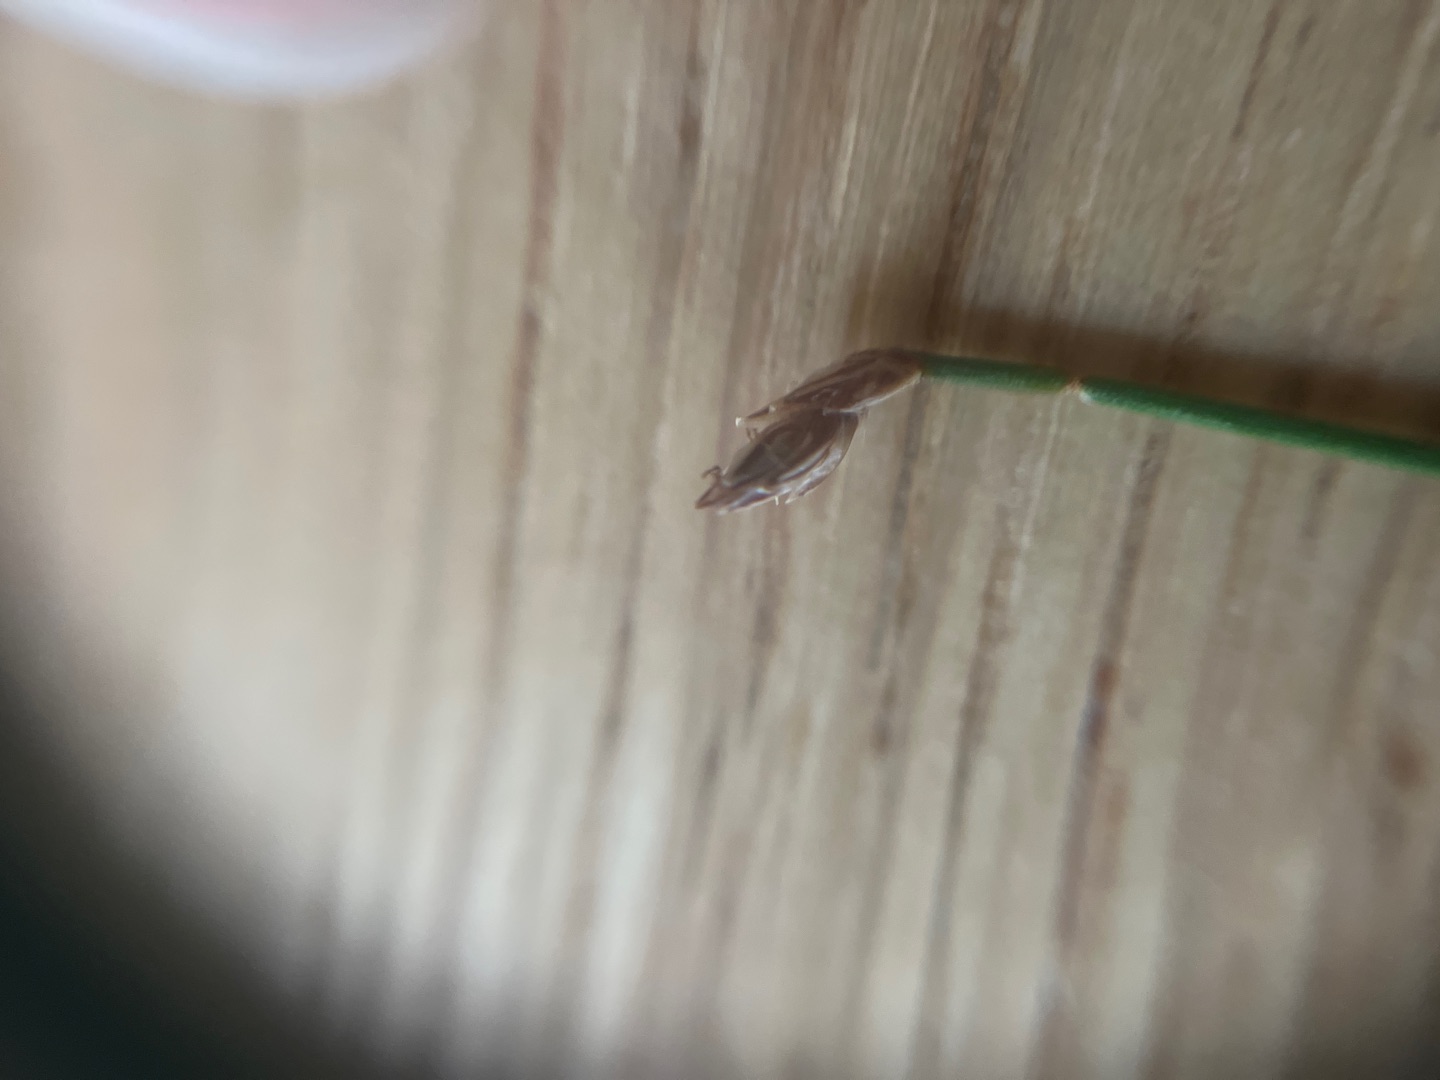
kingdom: Plantae
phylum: Tracheophyta
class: Liliopsida
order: Poales
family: Cyperaceae
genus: Eleocharis
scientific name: Eleocharis
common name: Sumpstråslægten
